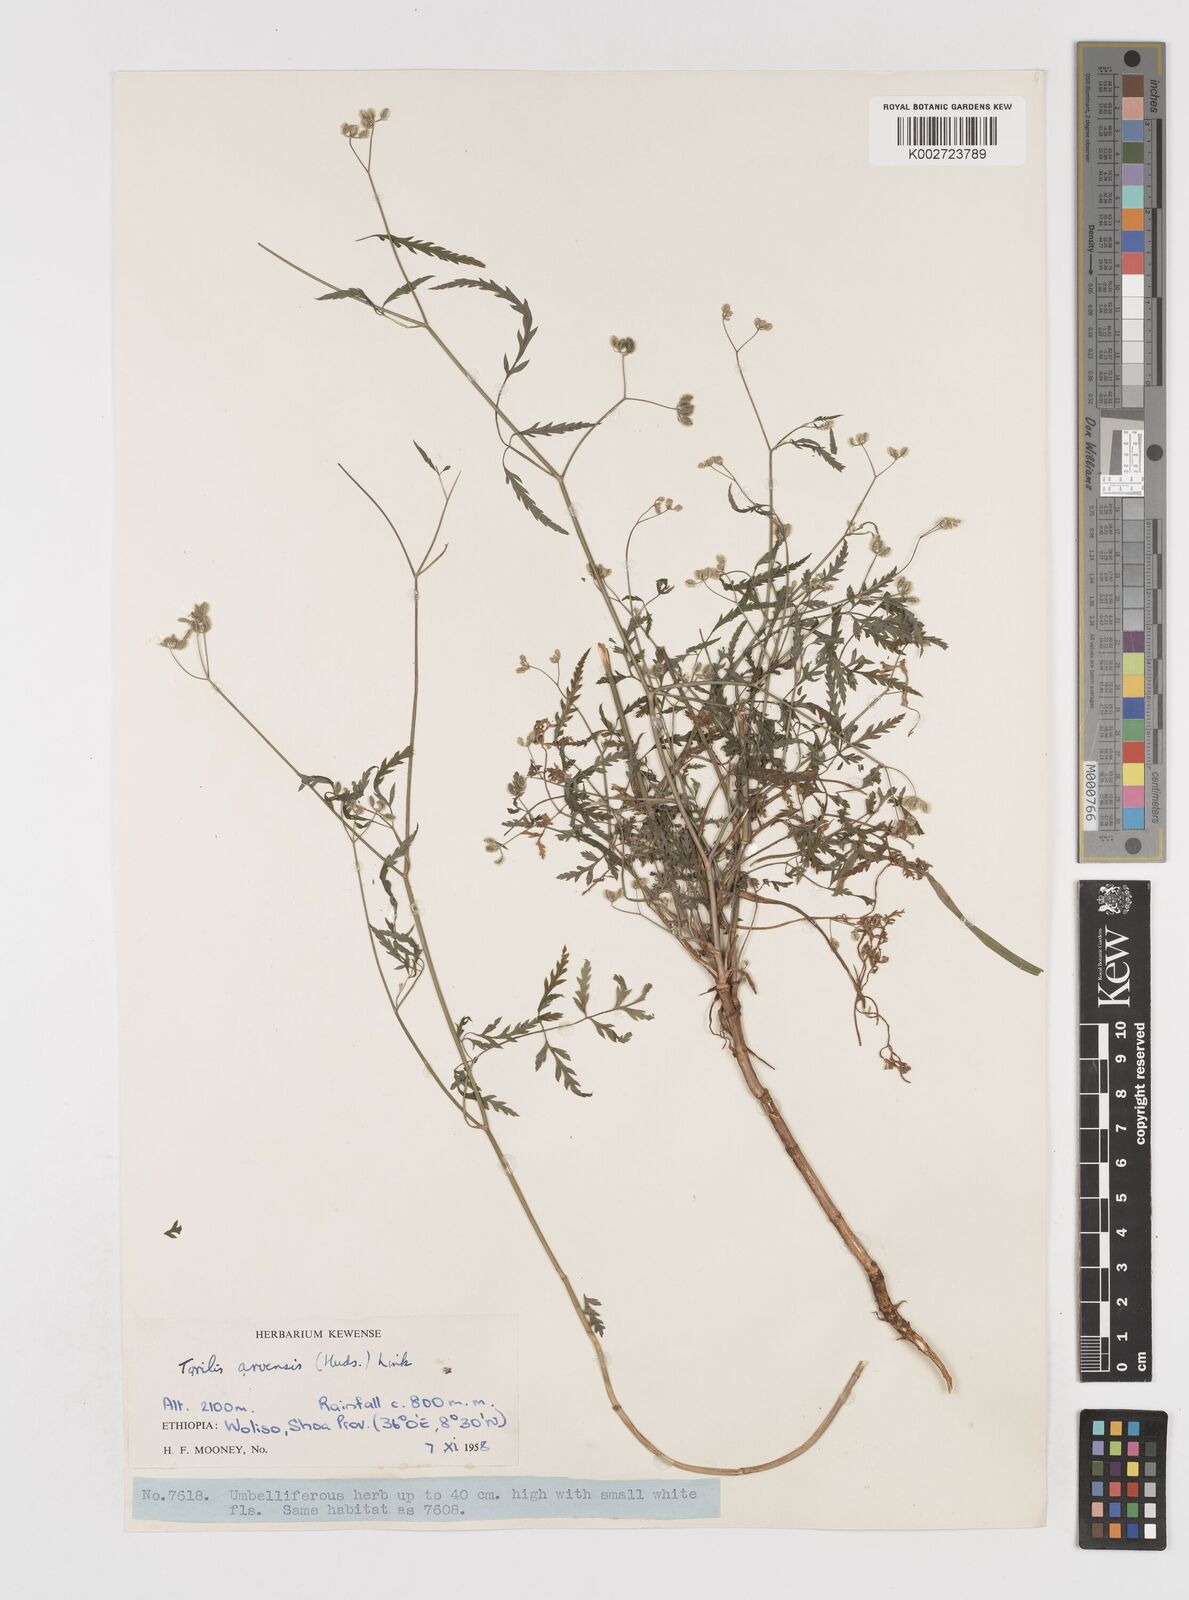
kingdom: Plantae
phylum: Tracheophyta
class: Magnoliopsida
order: Apiales
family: Apiaceae
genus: Torilis
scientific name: Torilis arvensis
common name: Spreading hedge-parsley
